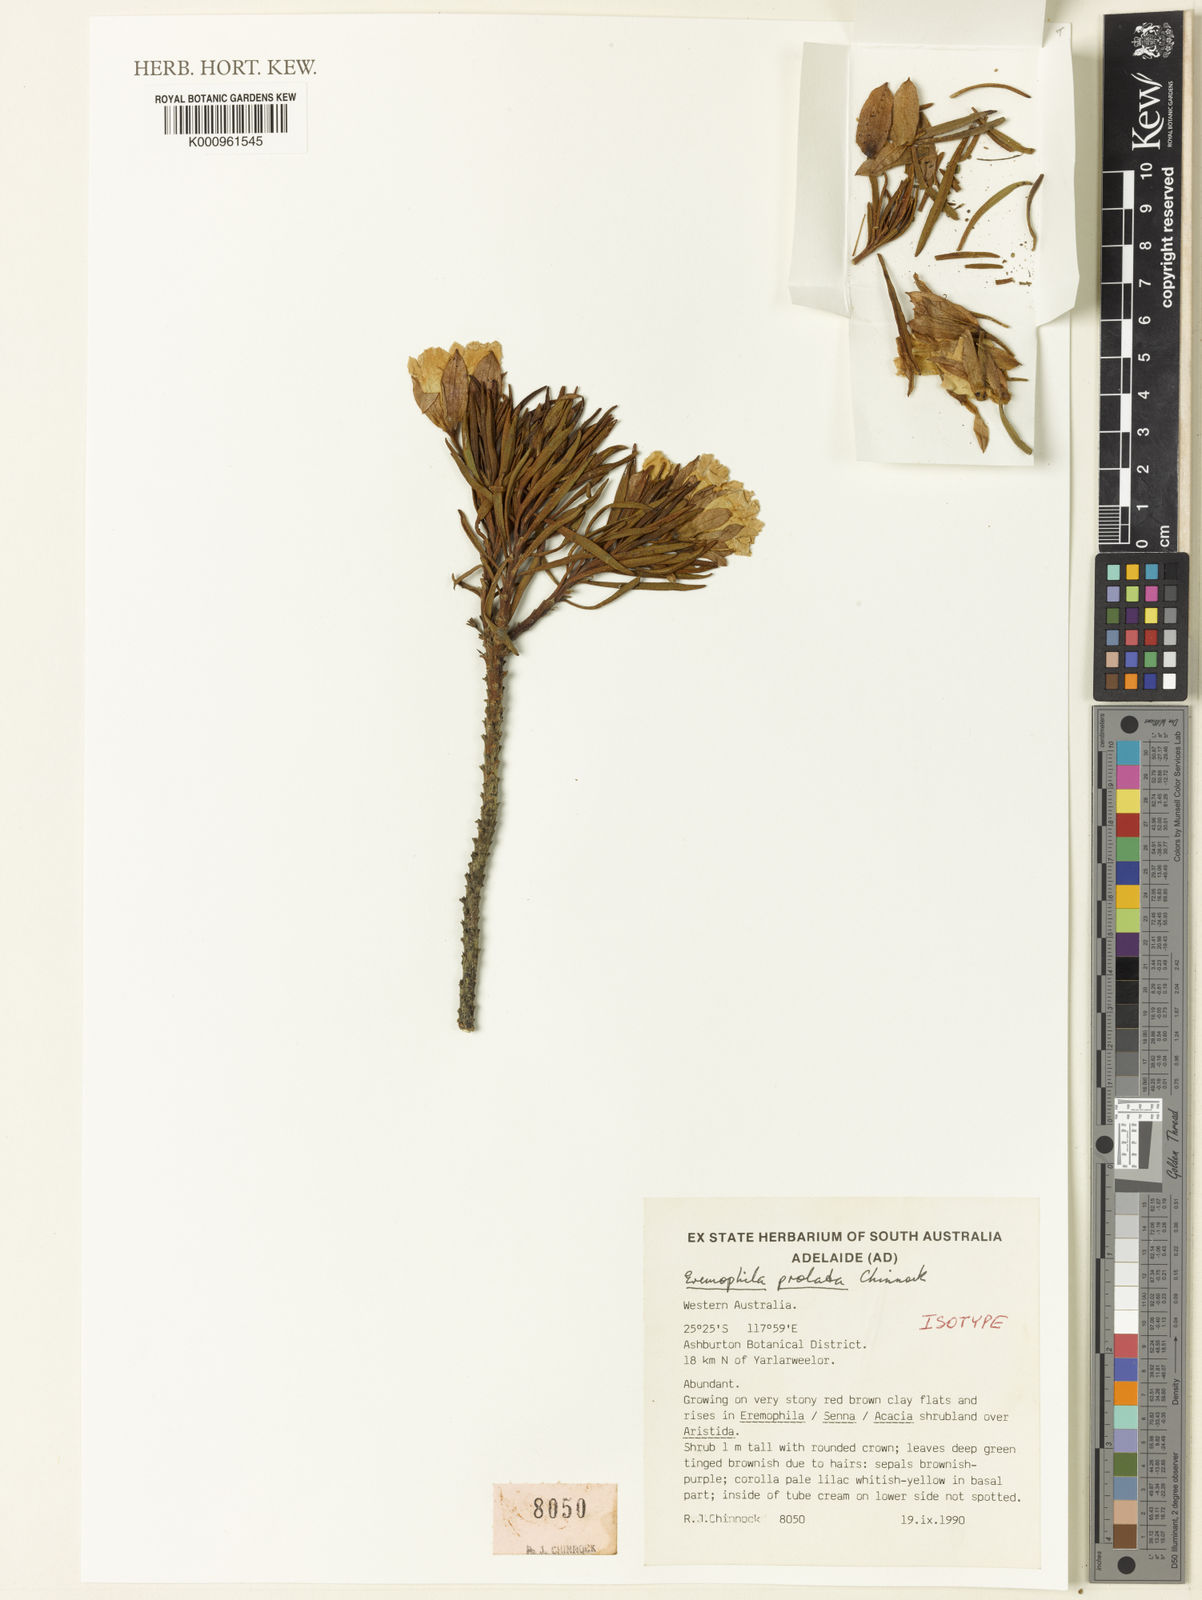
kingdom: Plantae
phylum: Tracheophyta
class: Magnoliopsida
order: Lamiales
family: Scrophulariaceae
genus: Eremophila
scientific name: Eremophila prolata
